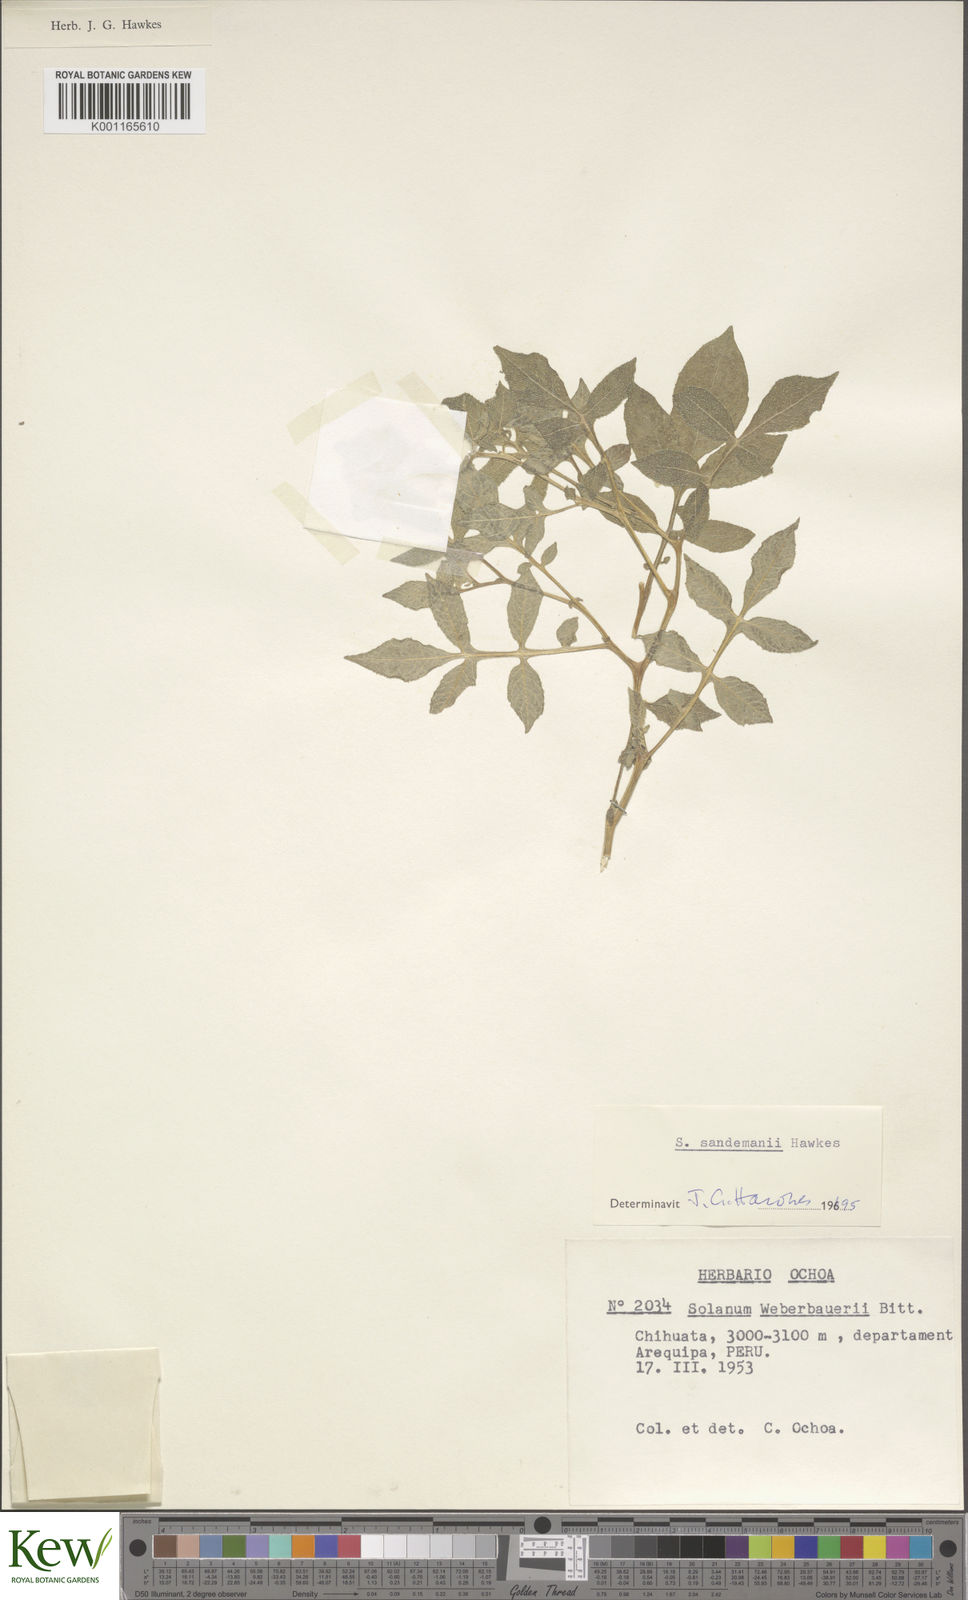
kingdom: Plantae
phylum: Tracheophyta
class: Magnoliopsida
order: Solanales
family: Solanaceae
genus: Solanum
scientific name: Solanum medians
